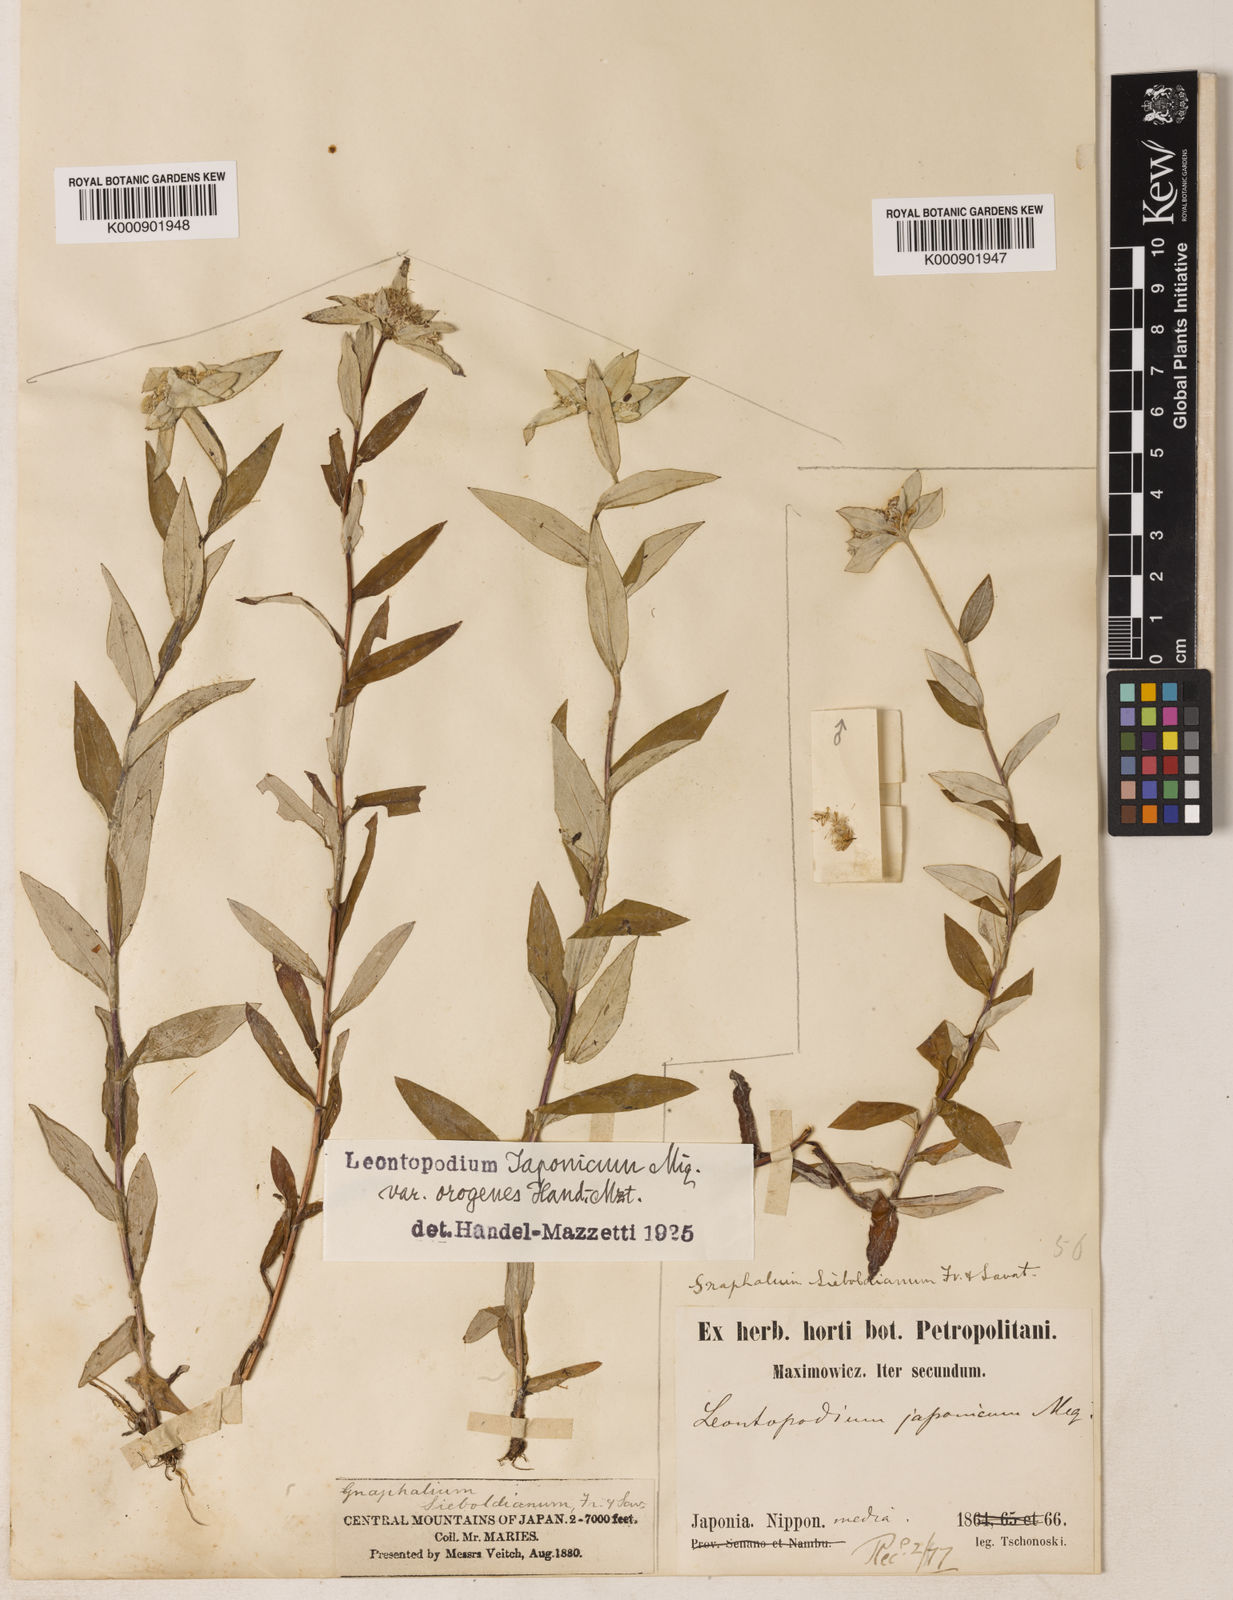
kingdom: Plantae
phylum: Tracheophyta
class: Magnoliopsida
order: Asterales
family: Asteraceae
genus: Leontopodium
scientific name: Leontopodium japonicum
